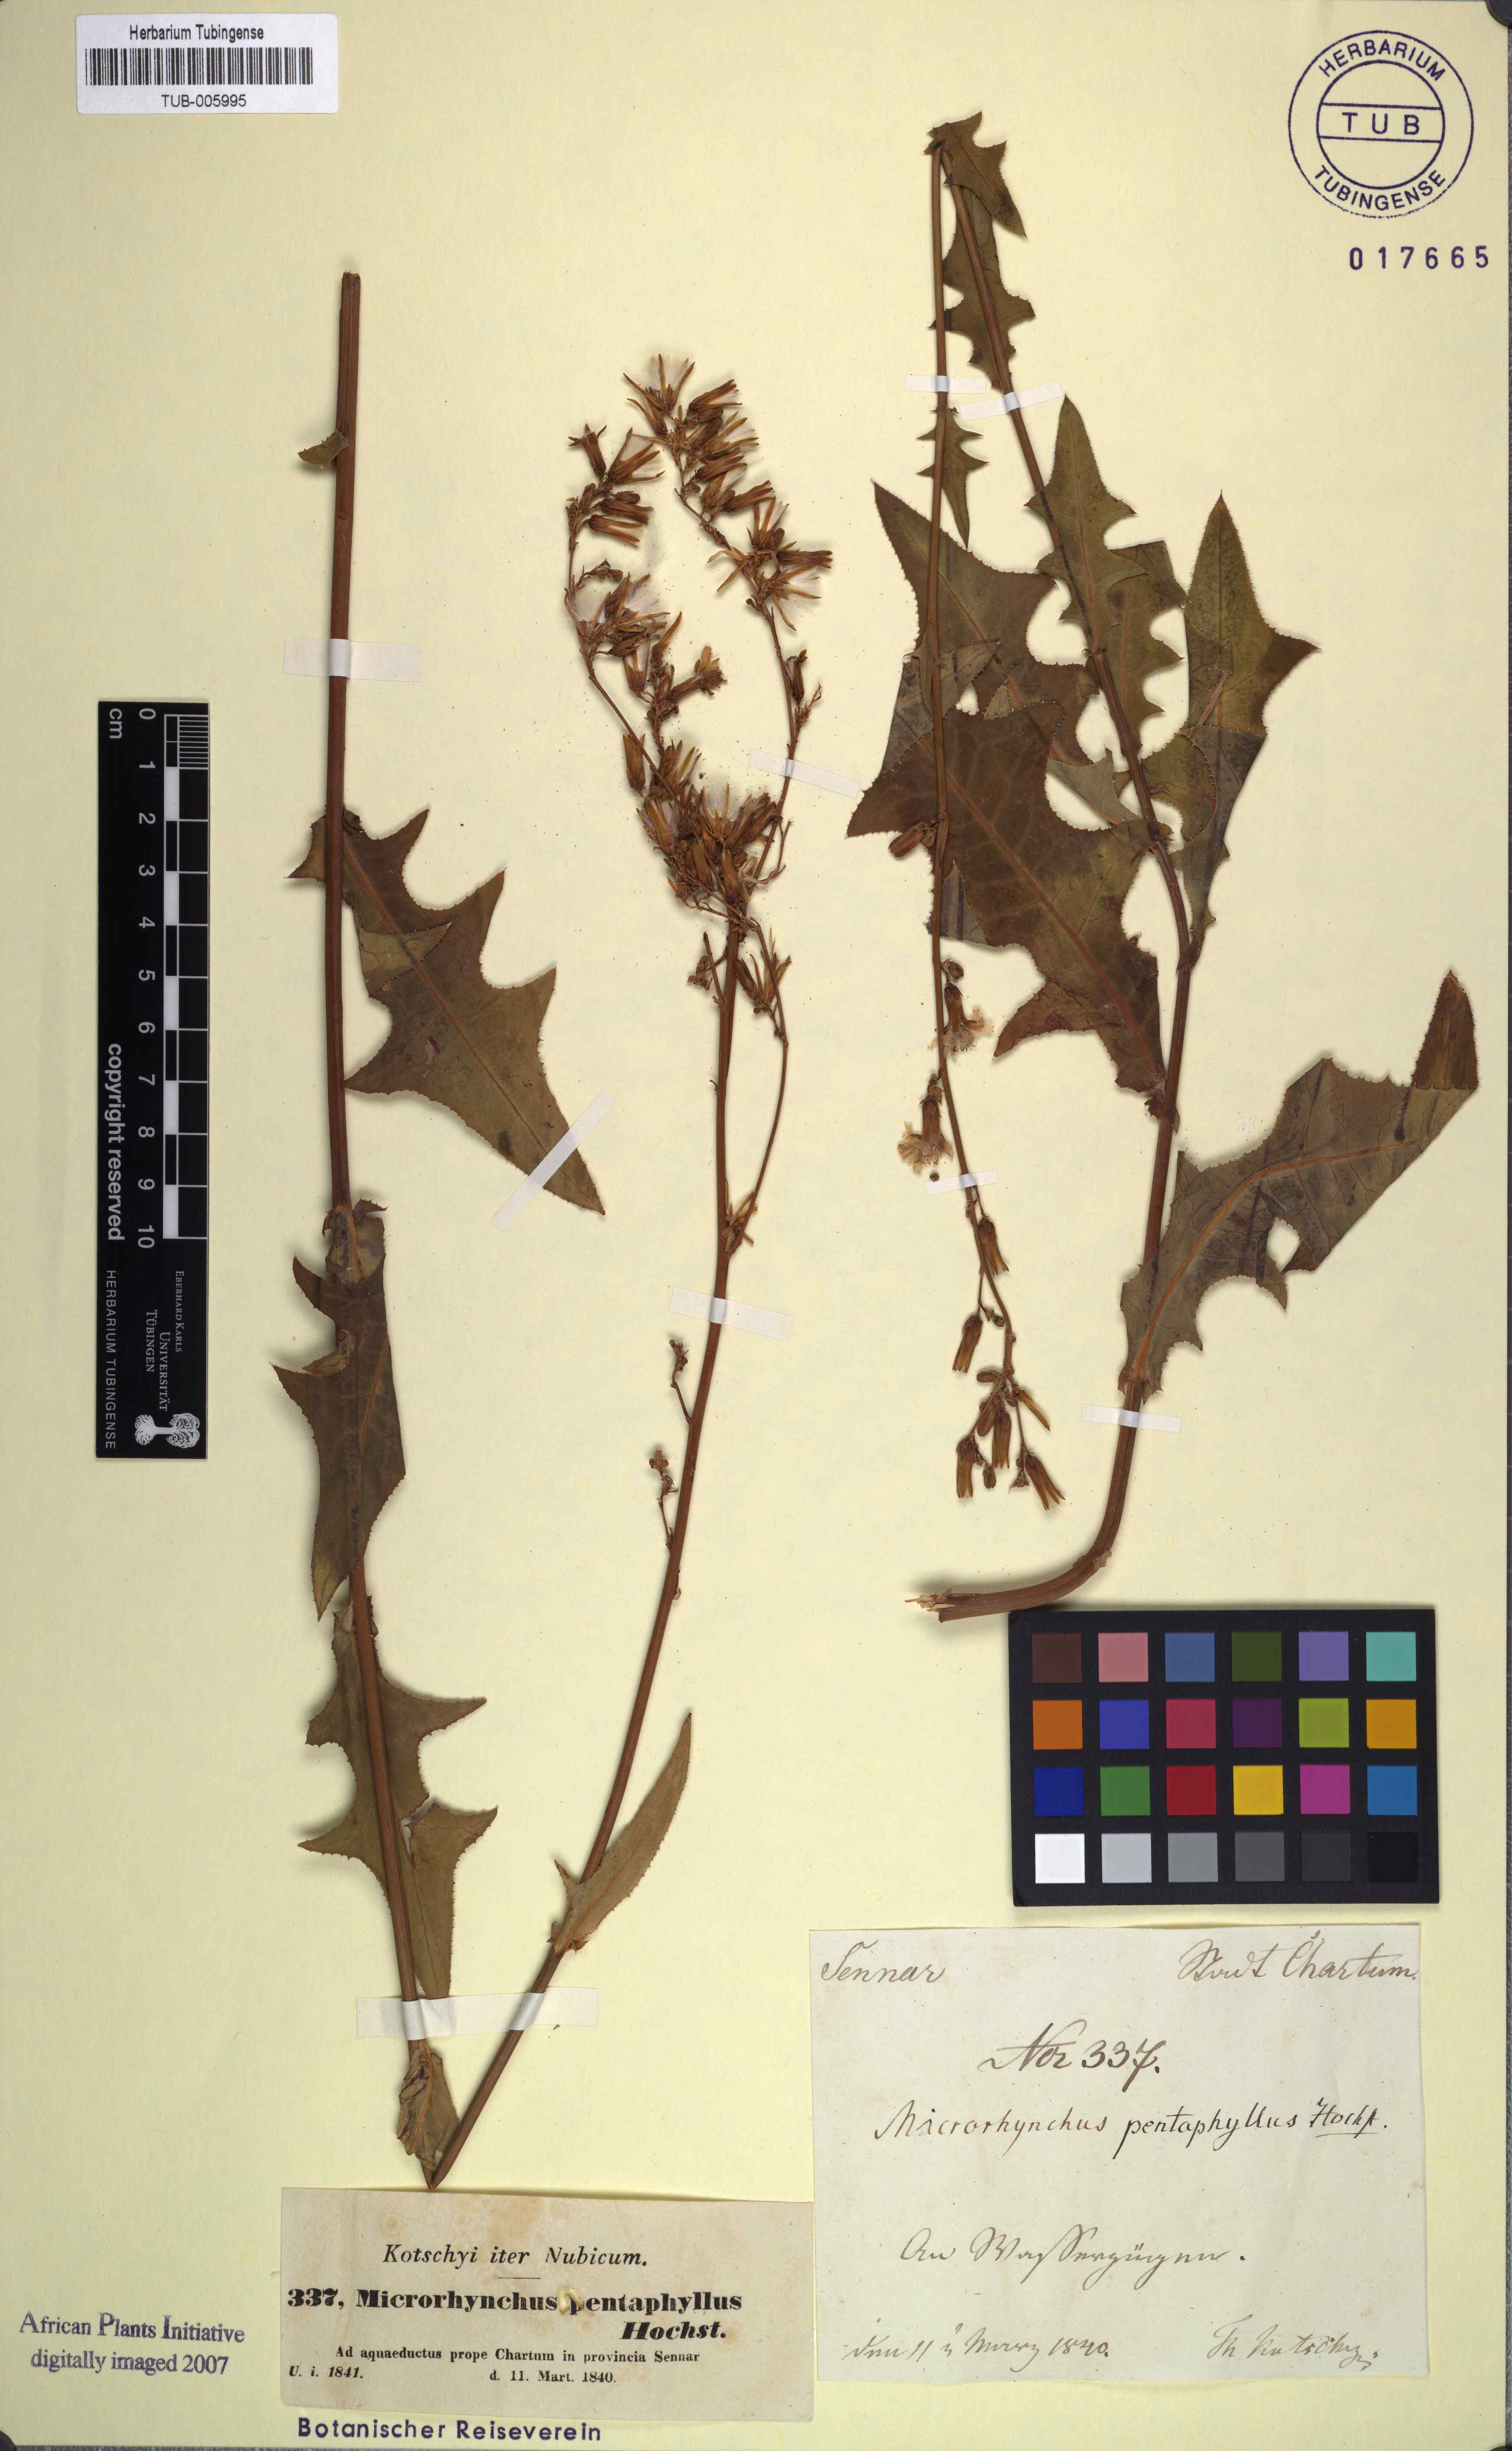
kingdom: Plantae
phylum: Tracheophyta
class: Magnoliopsida
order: Asterales
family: Asteraceae
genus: Launaea
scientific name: Launaea taraxacifolia
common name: African-lettuce
